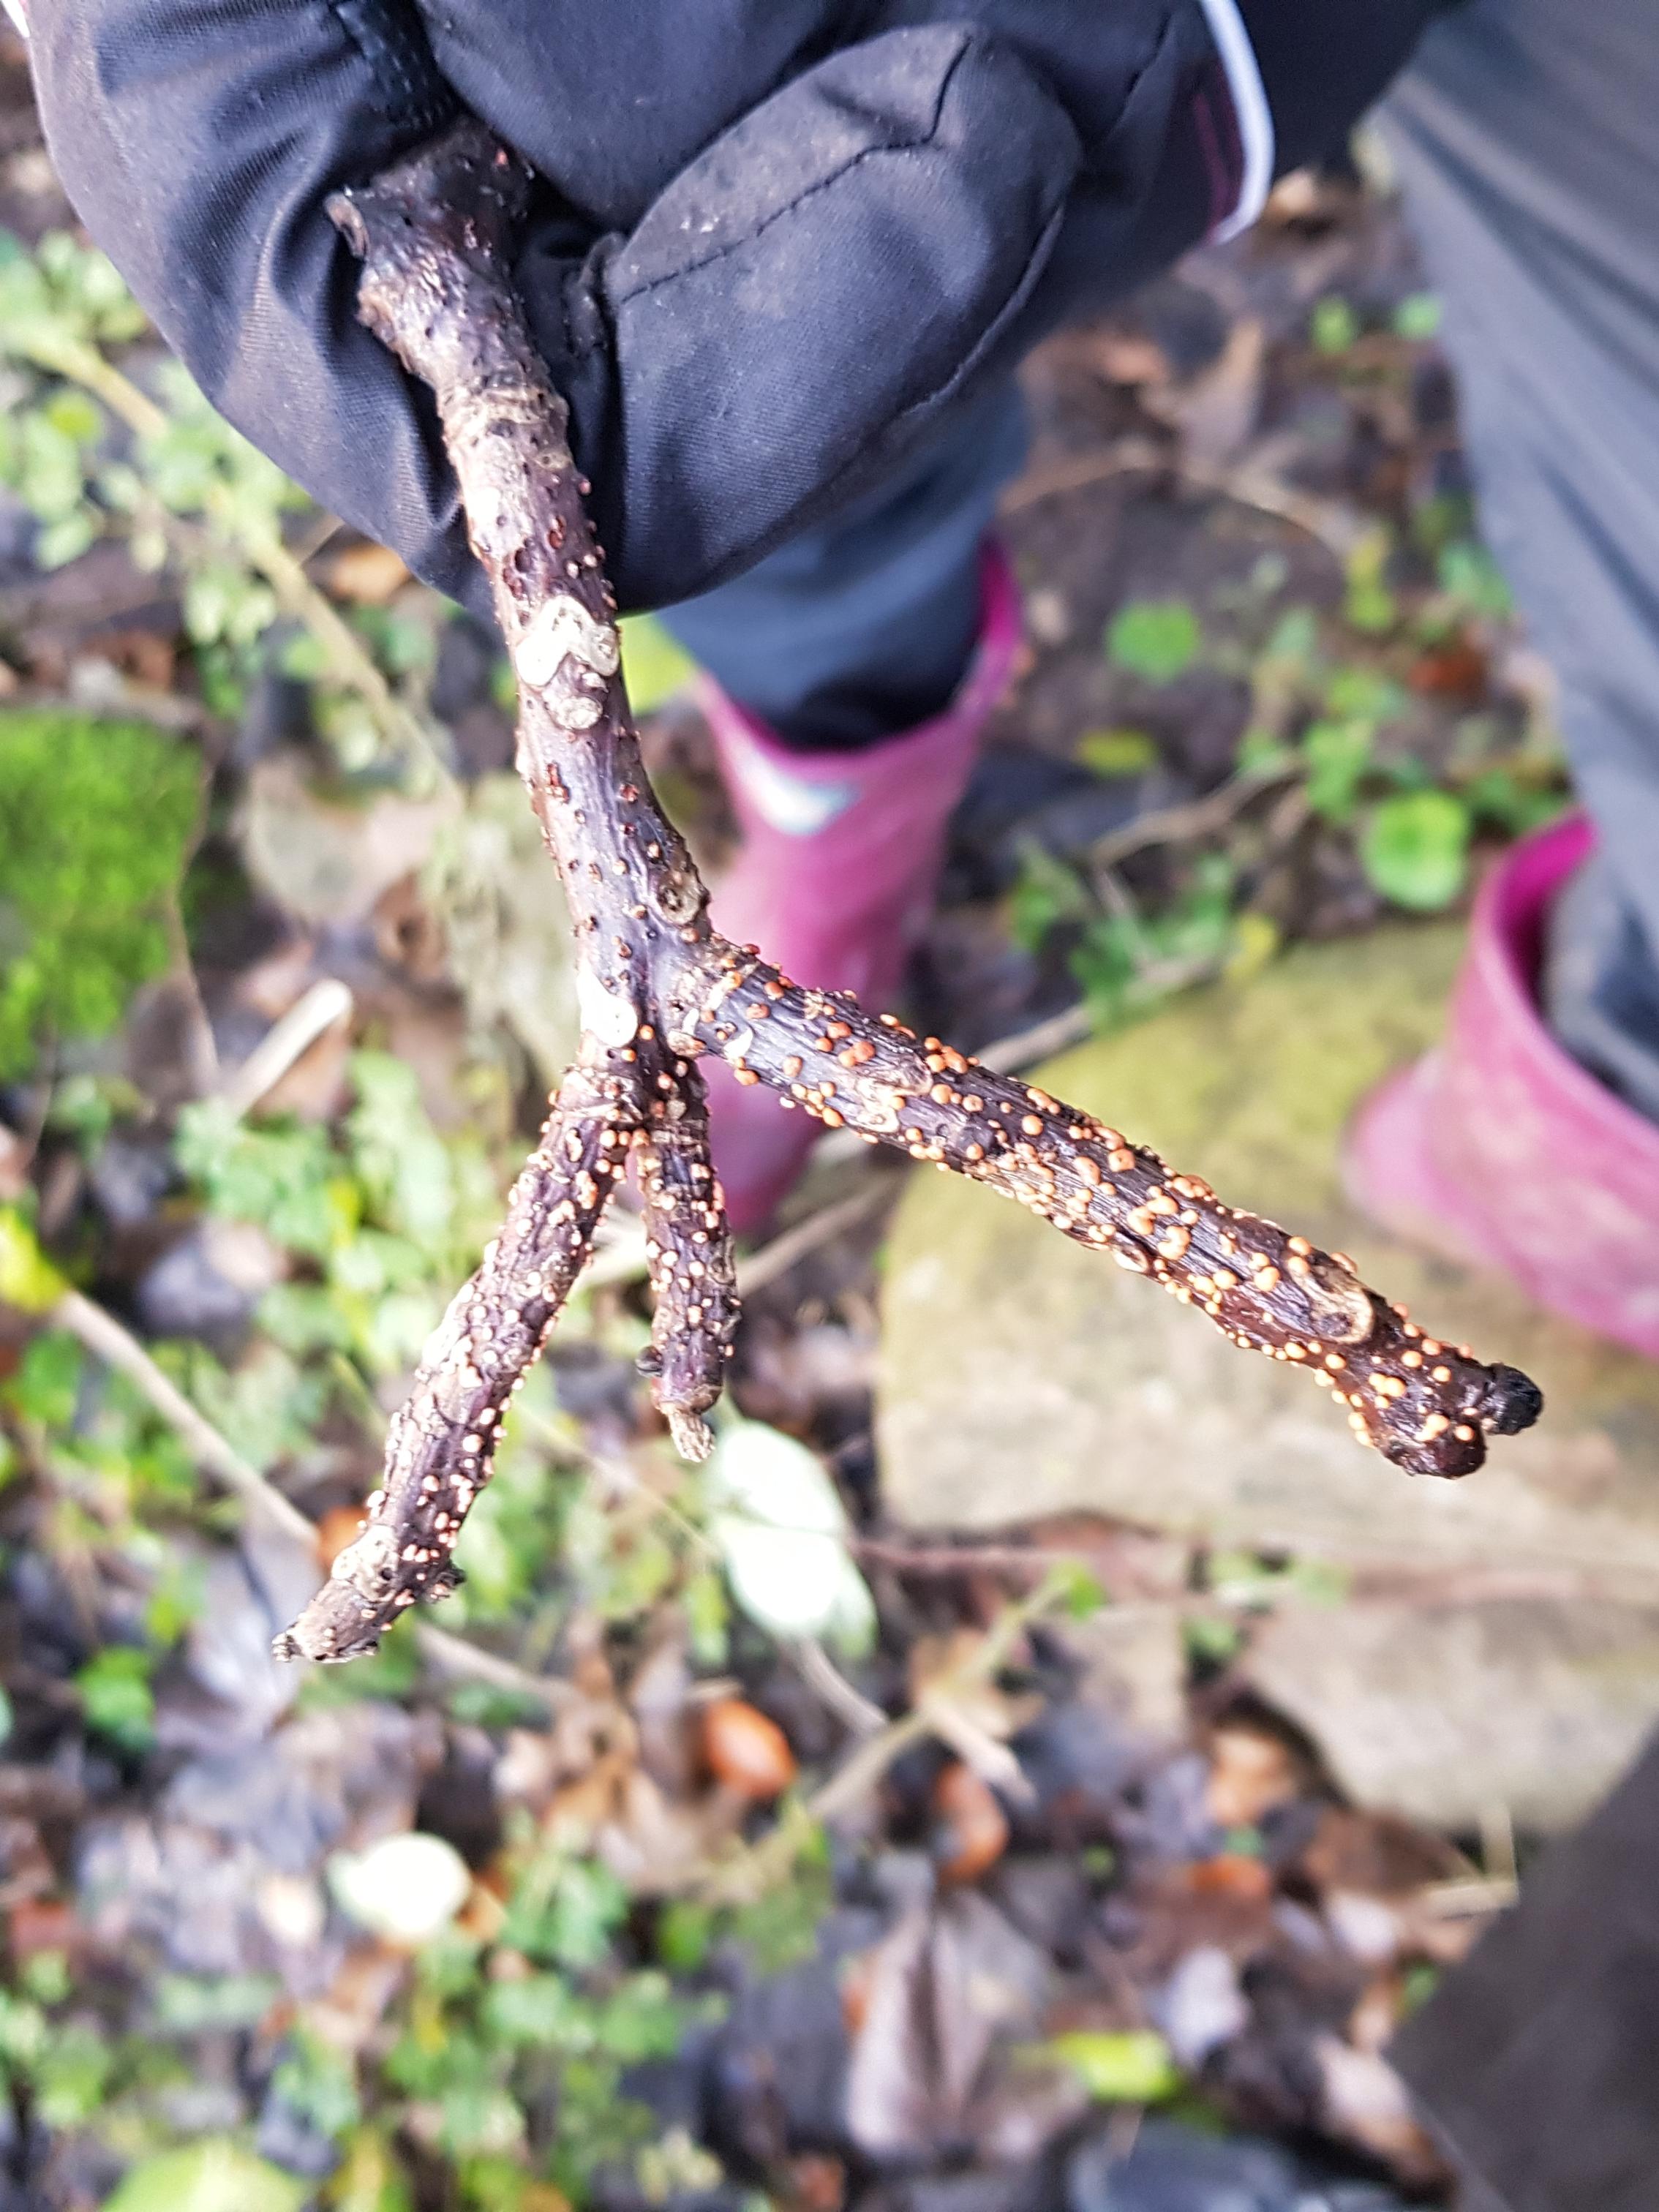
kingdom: Fungi
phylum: Ascomycota
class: Sordariomycetes
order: Hypocreales
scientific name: Hypocreales
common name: kødkerneordenen
